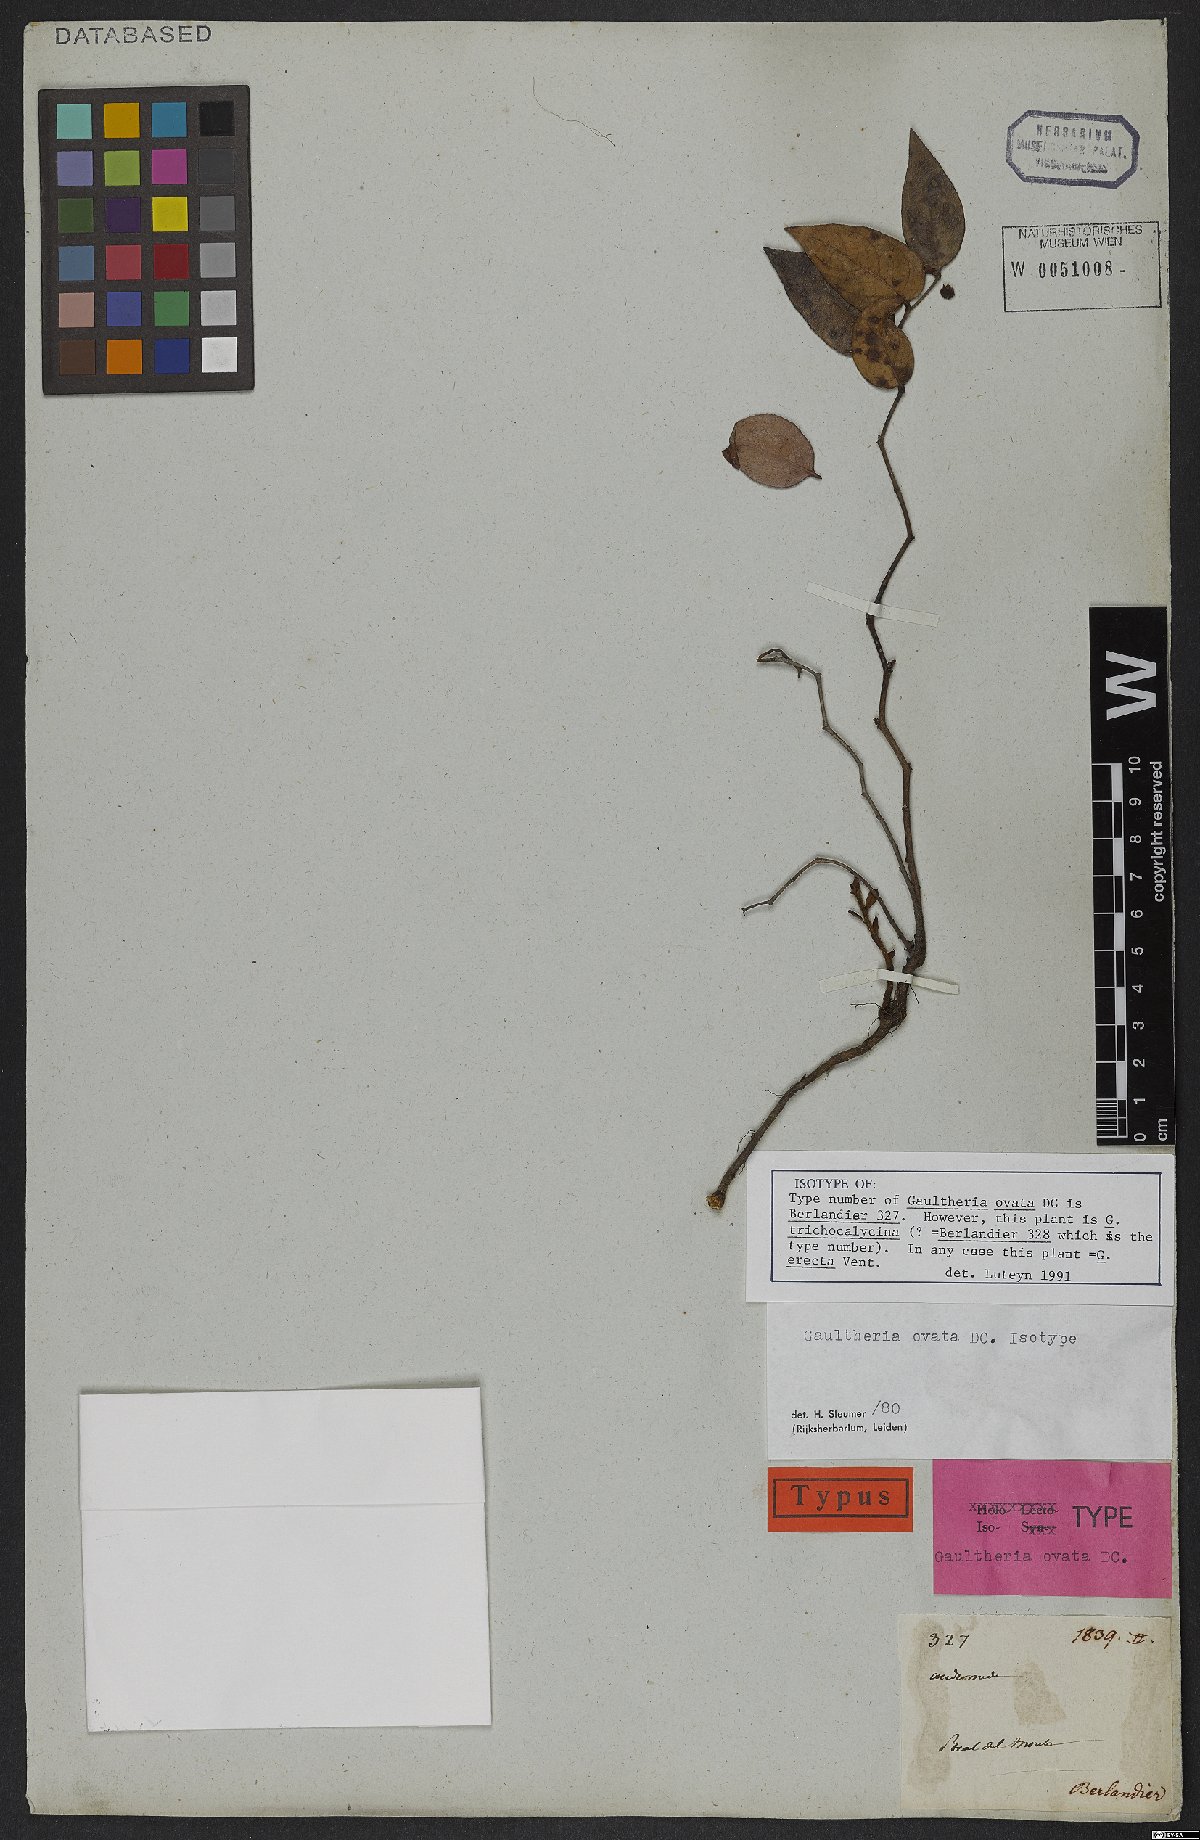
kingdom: Plantae
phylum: Tracheophyta
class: Magnoliopsida
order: Ericales
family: Ericaceae
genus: Gaultheria
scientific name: Gaultheria erecta
